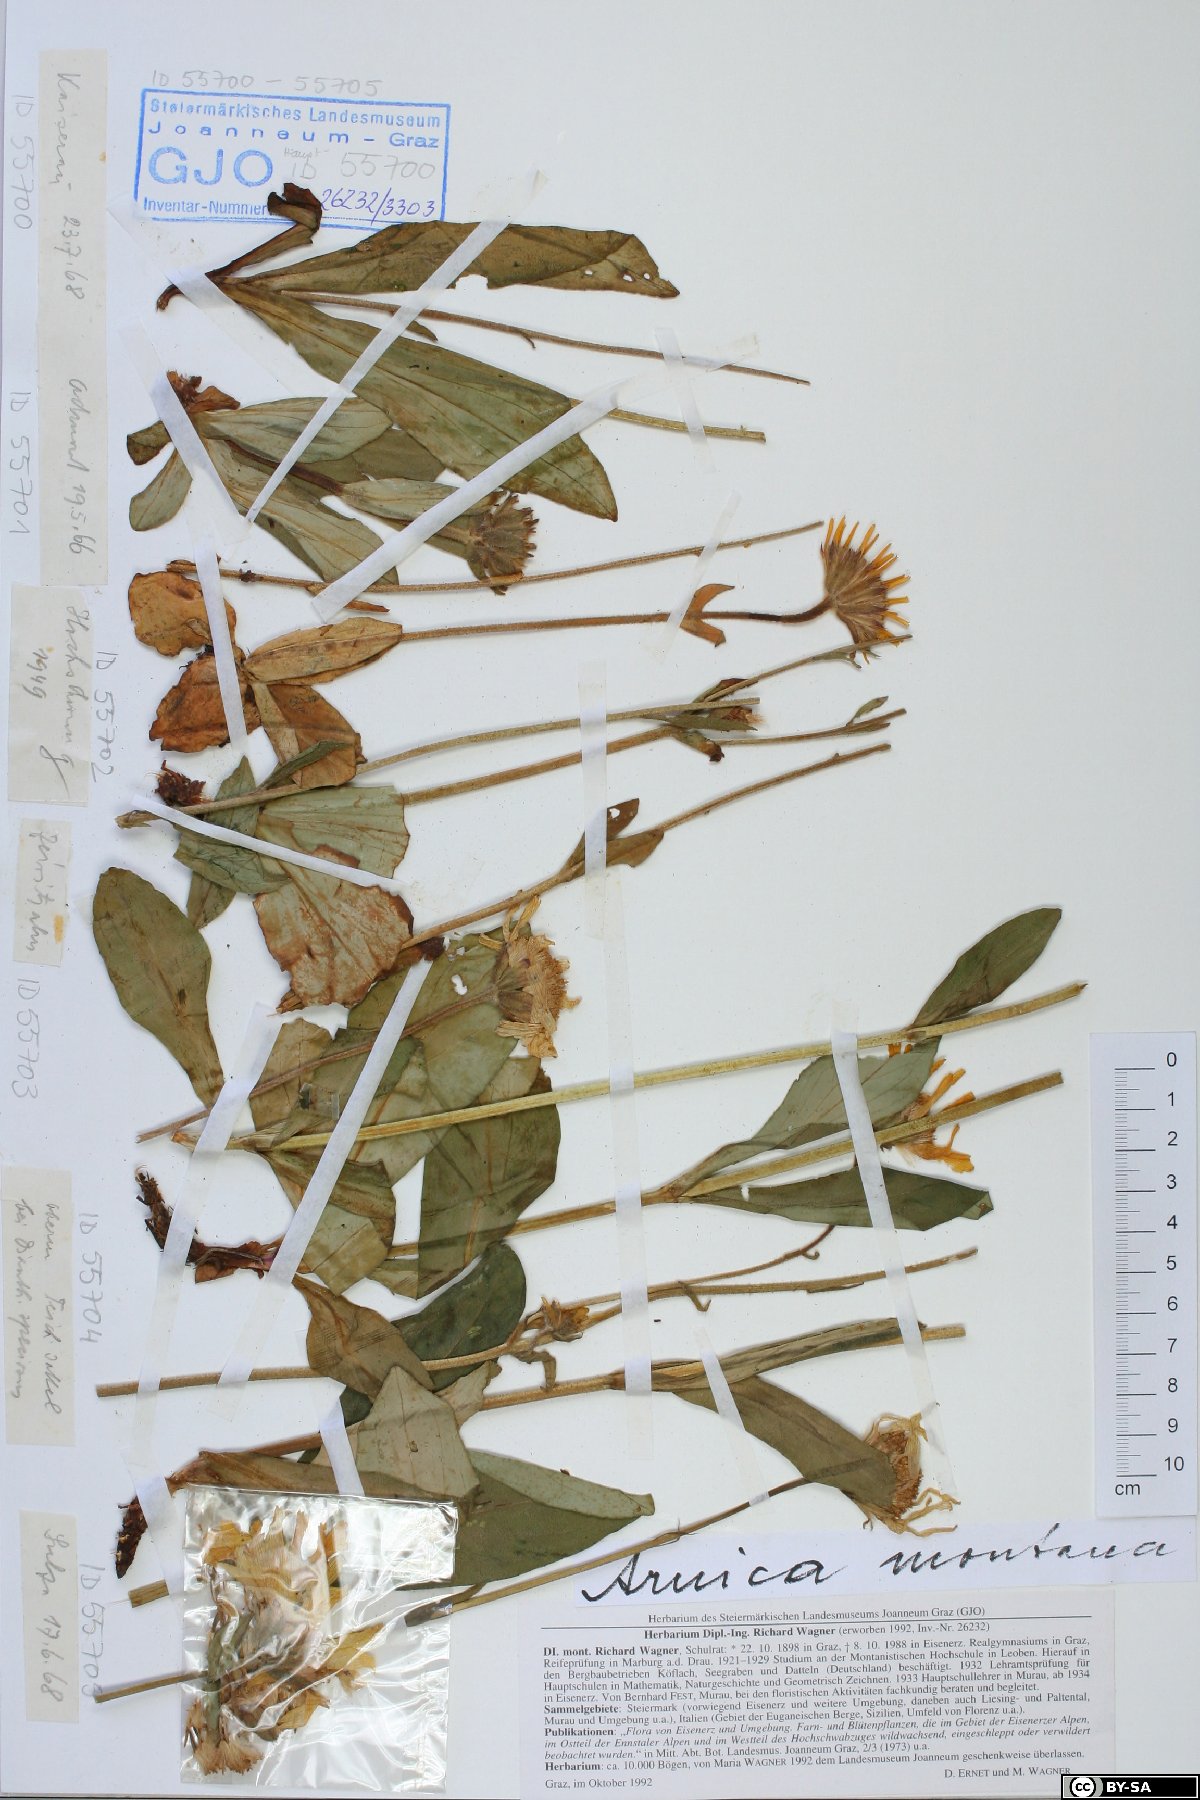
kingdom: Plantae
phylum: Tracheophyta
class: Magnoliopsida
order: Asterales
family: Asteraceae
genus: Arnica
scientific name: Arnica montana
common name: Leopard's bane
